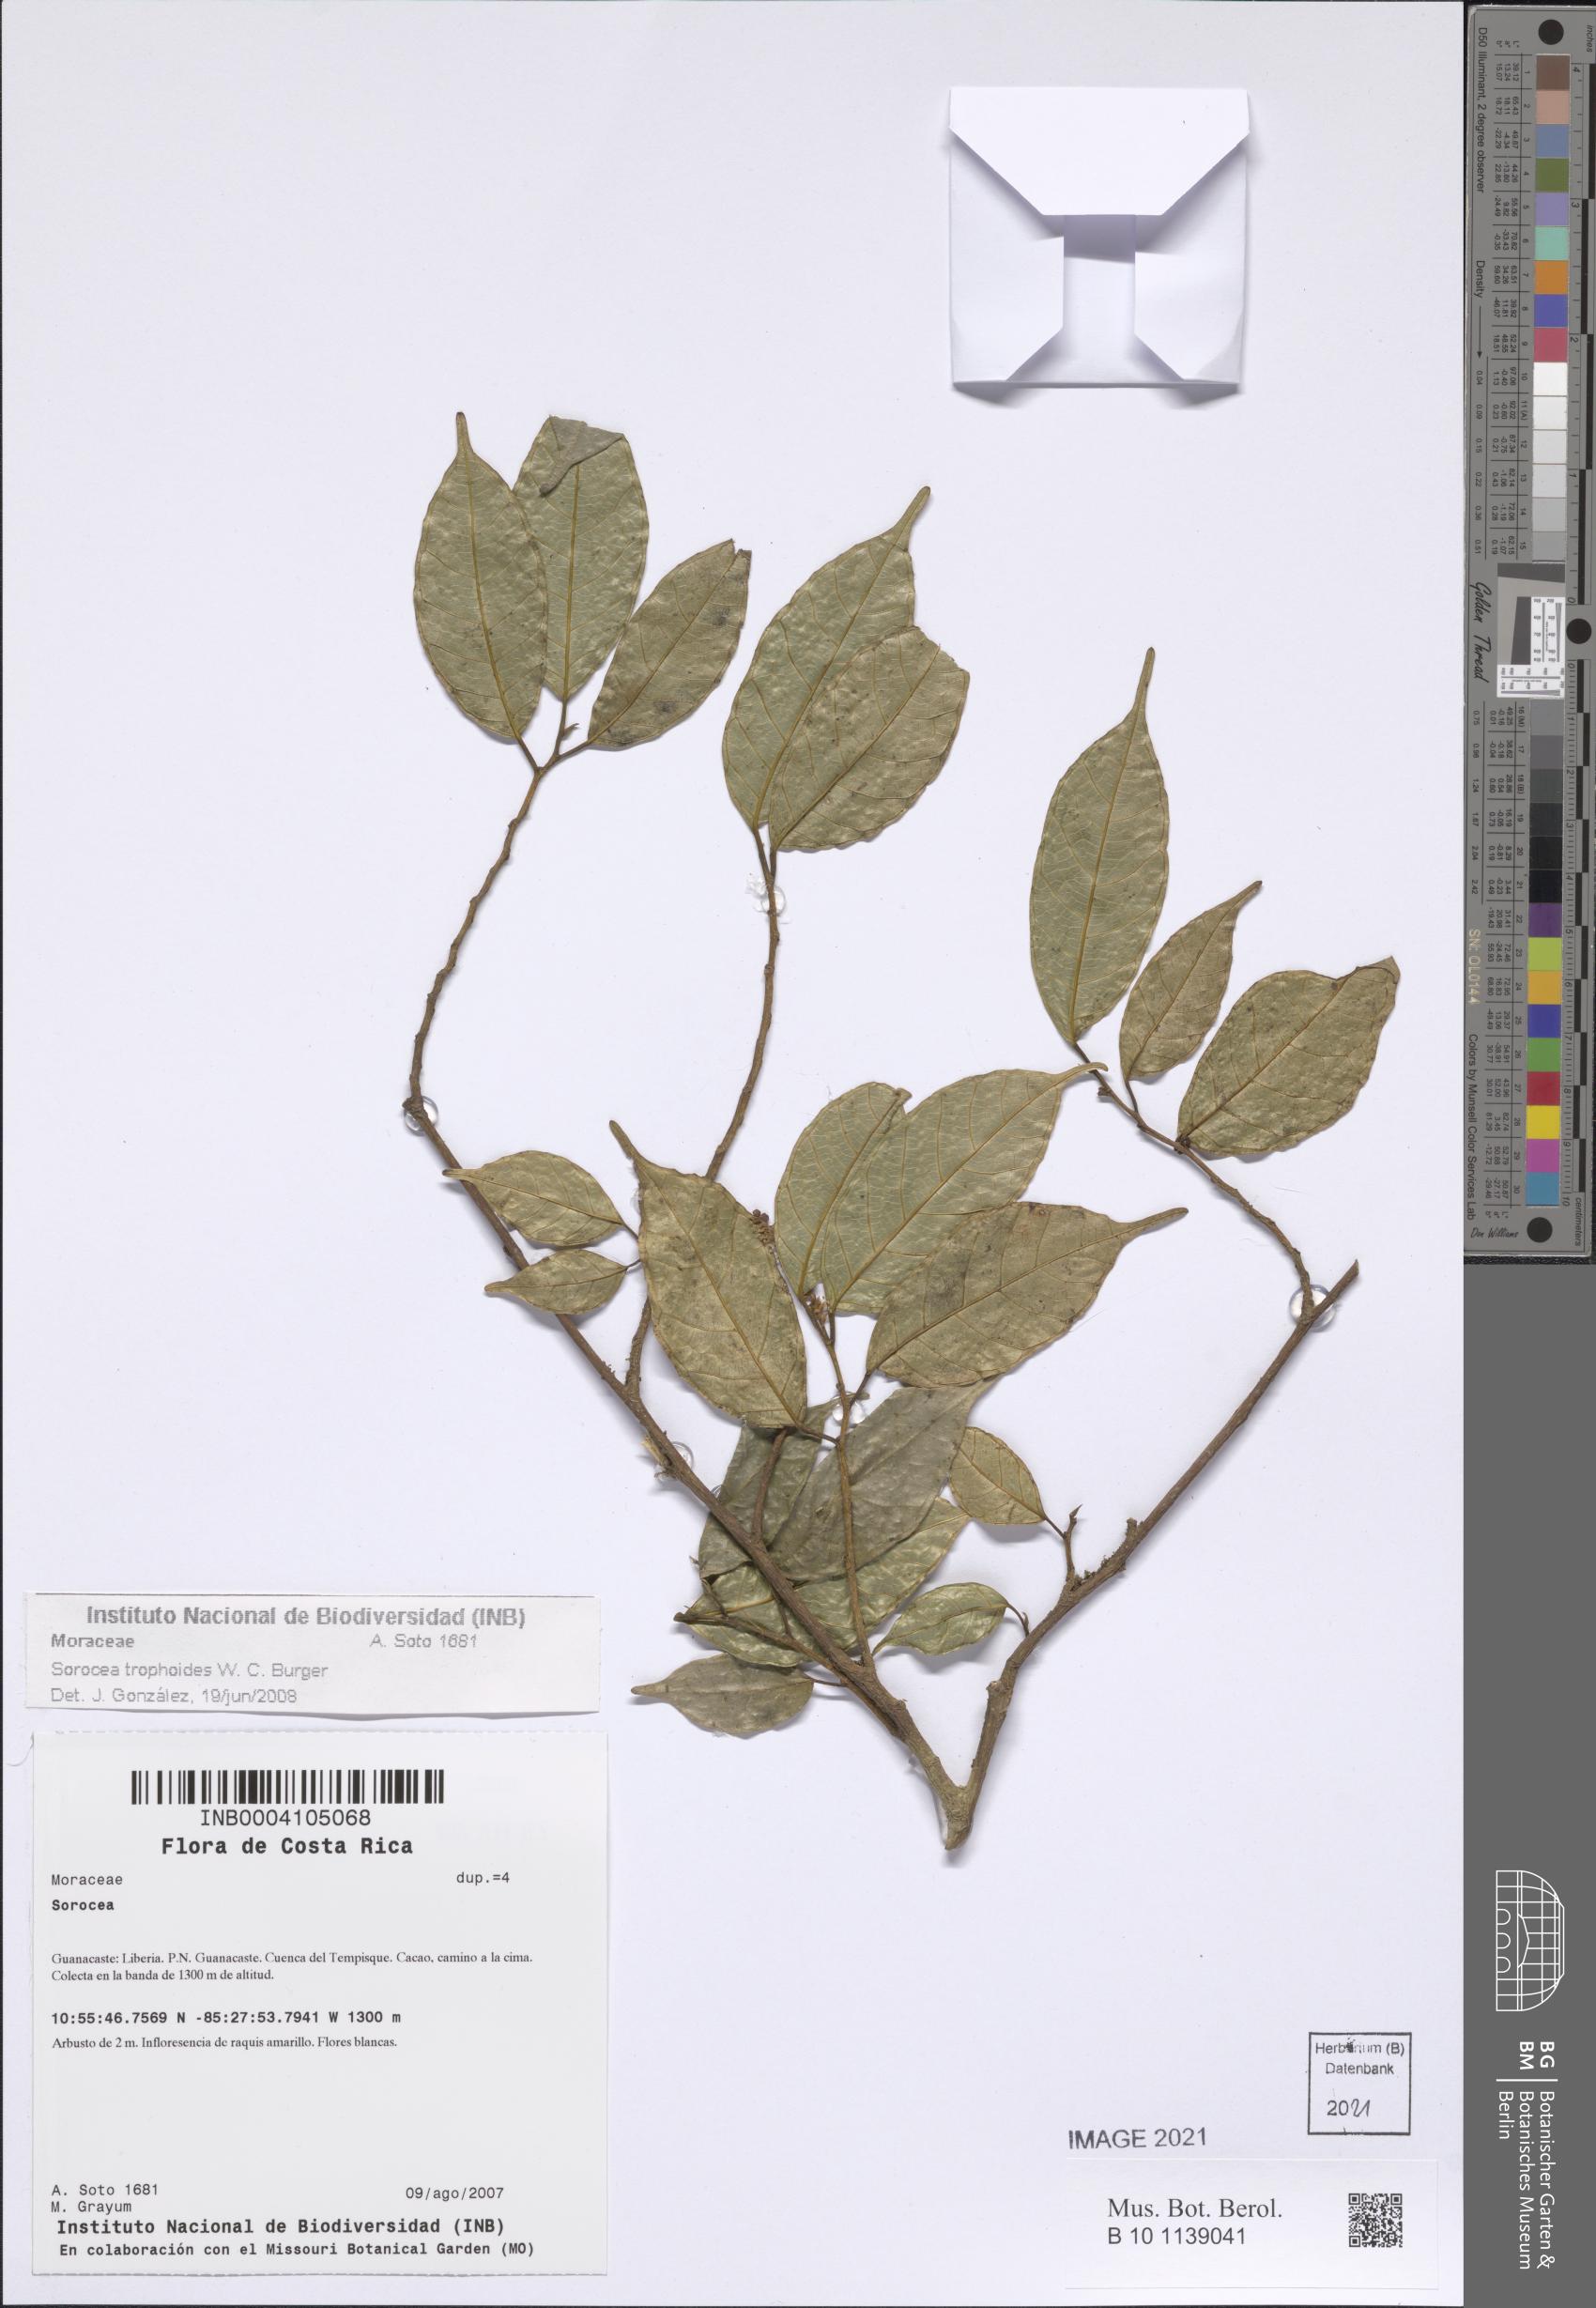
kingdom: Plantae
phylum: Tracheophyta
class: Magnoliopsida
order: Rosales
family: Moraceae
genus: Sorocea
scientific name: Sorocea trophoides
